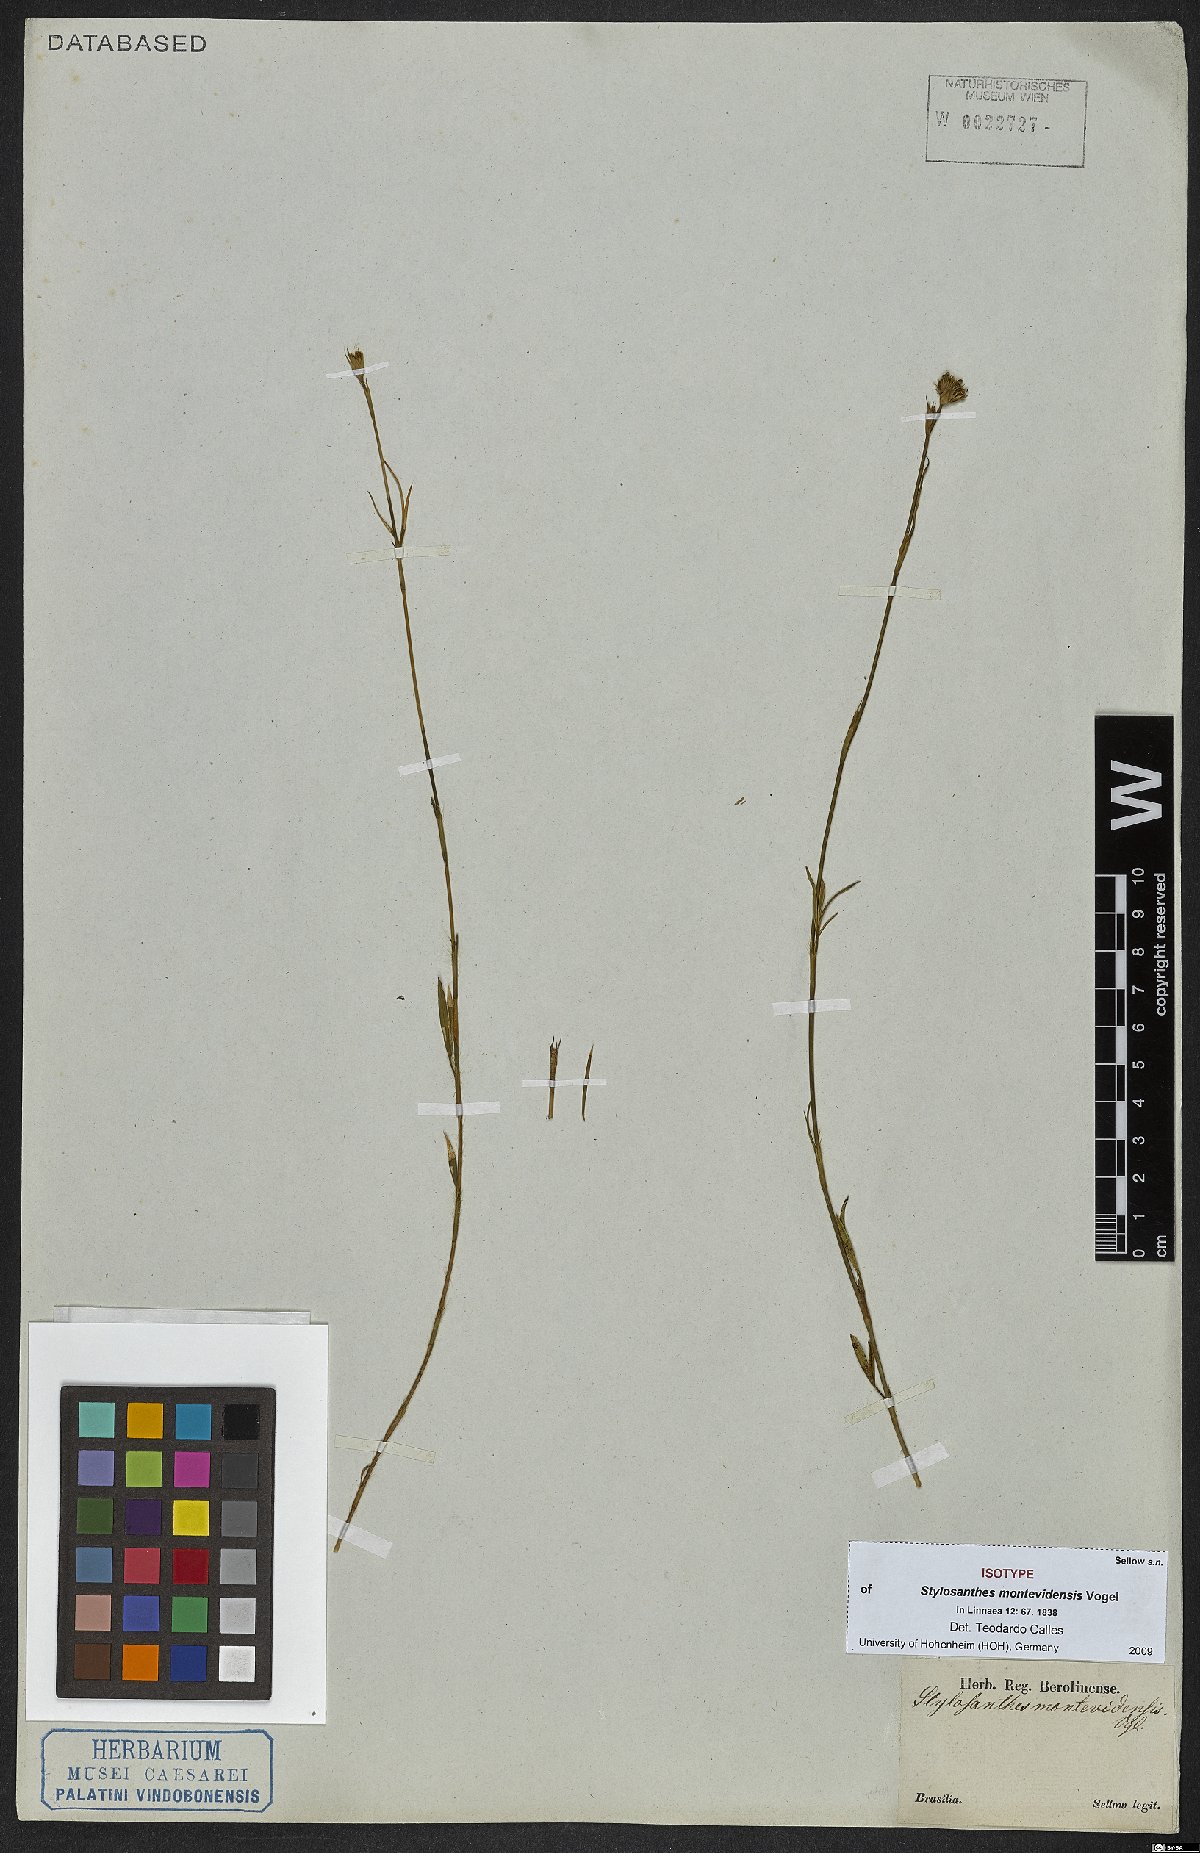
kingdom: Plantae
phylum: Tracheophyta
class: Magnoliopsida
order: Fabales
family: Fabaceae
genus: Stylosanthes
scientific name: Stylosanthes montevidensis
